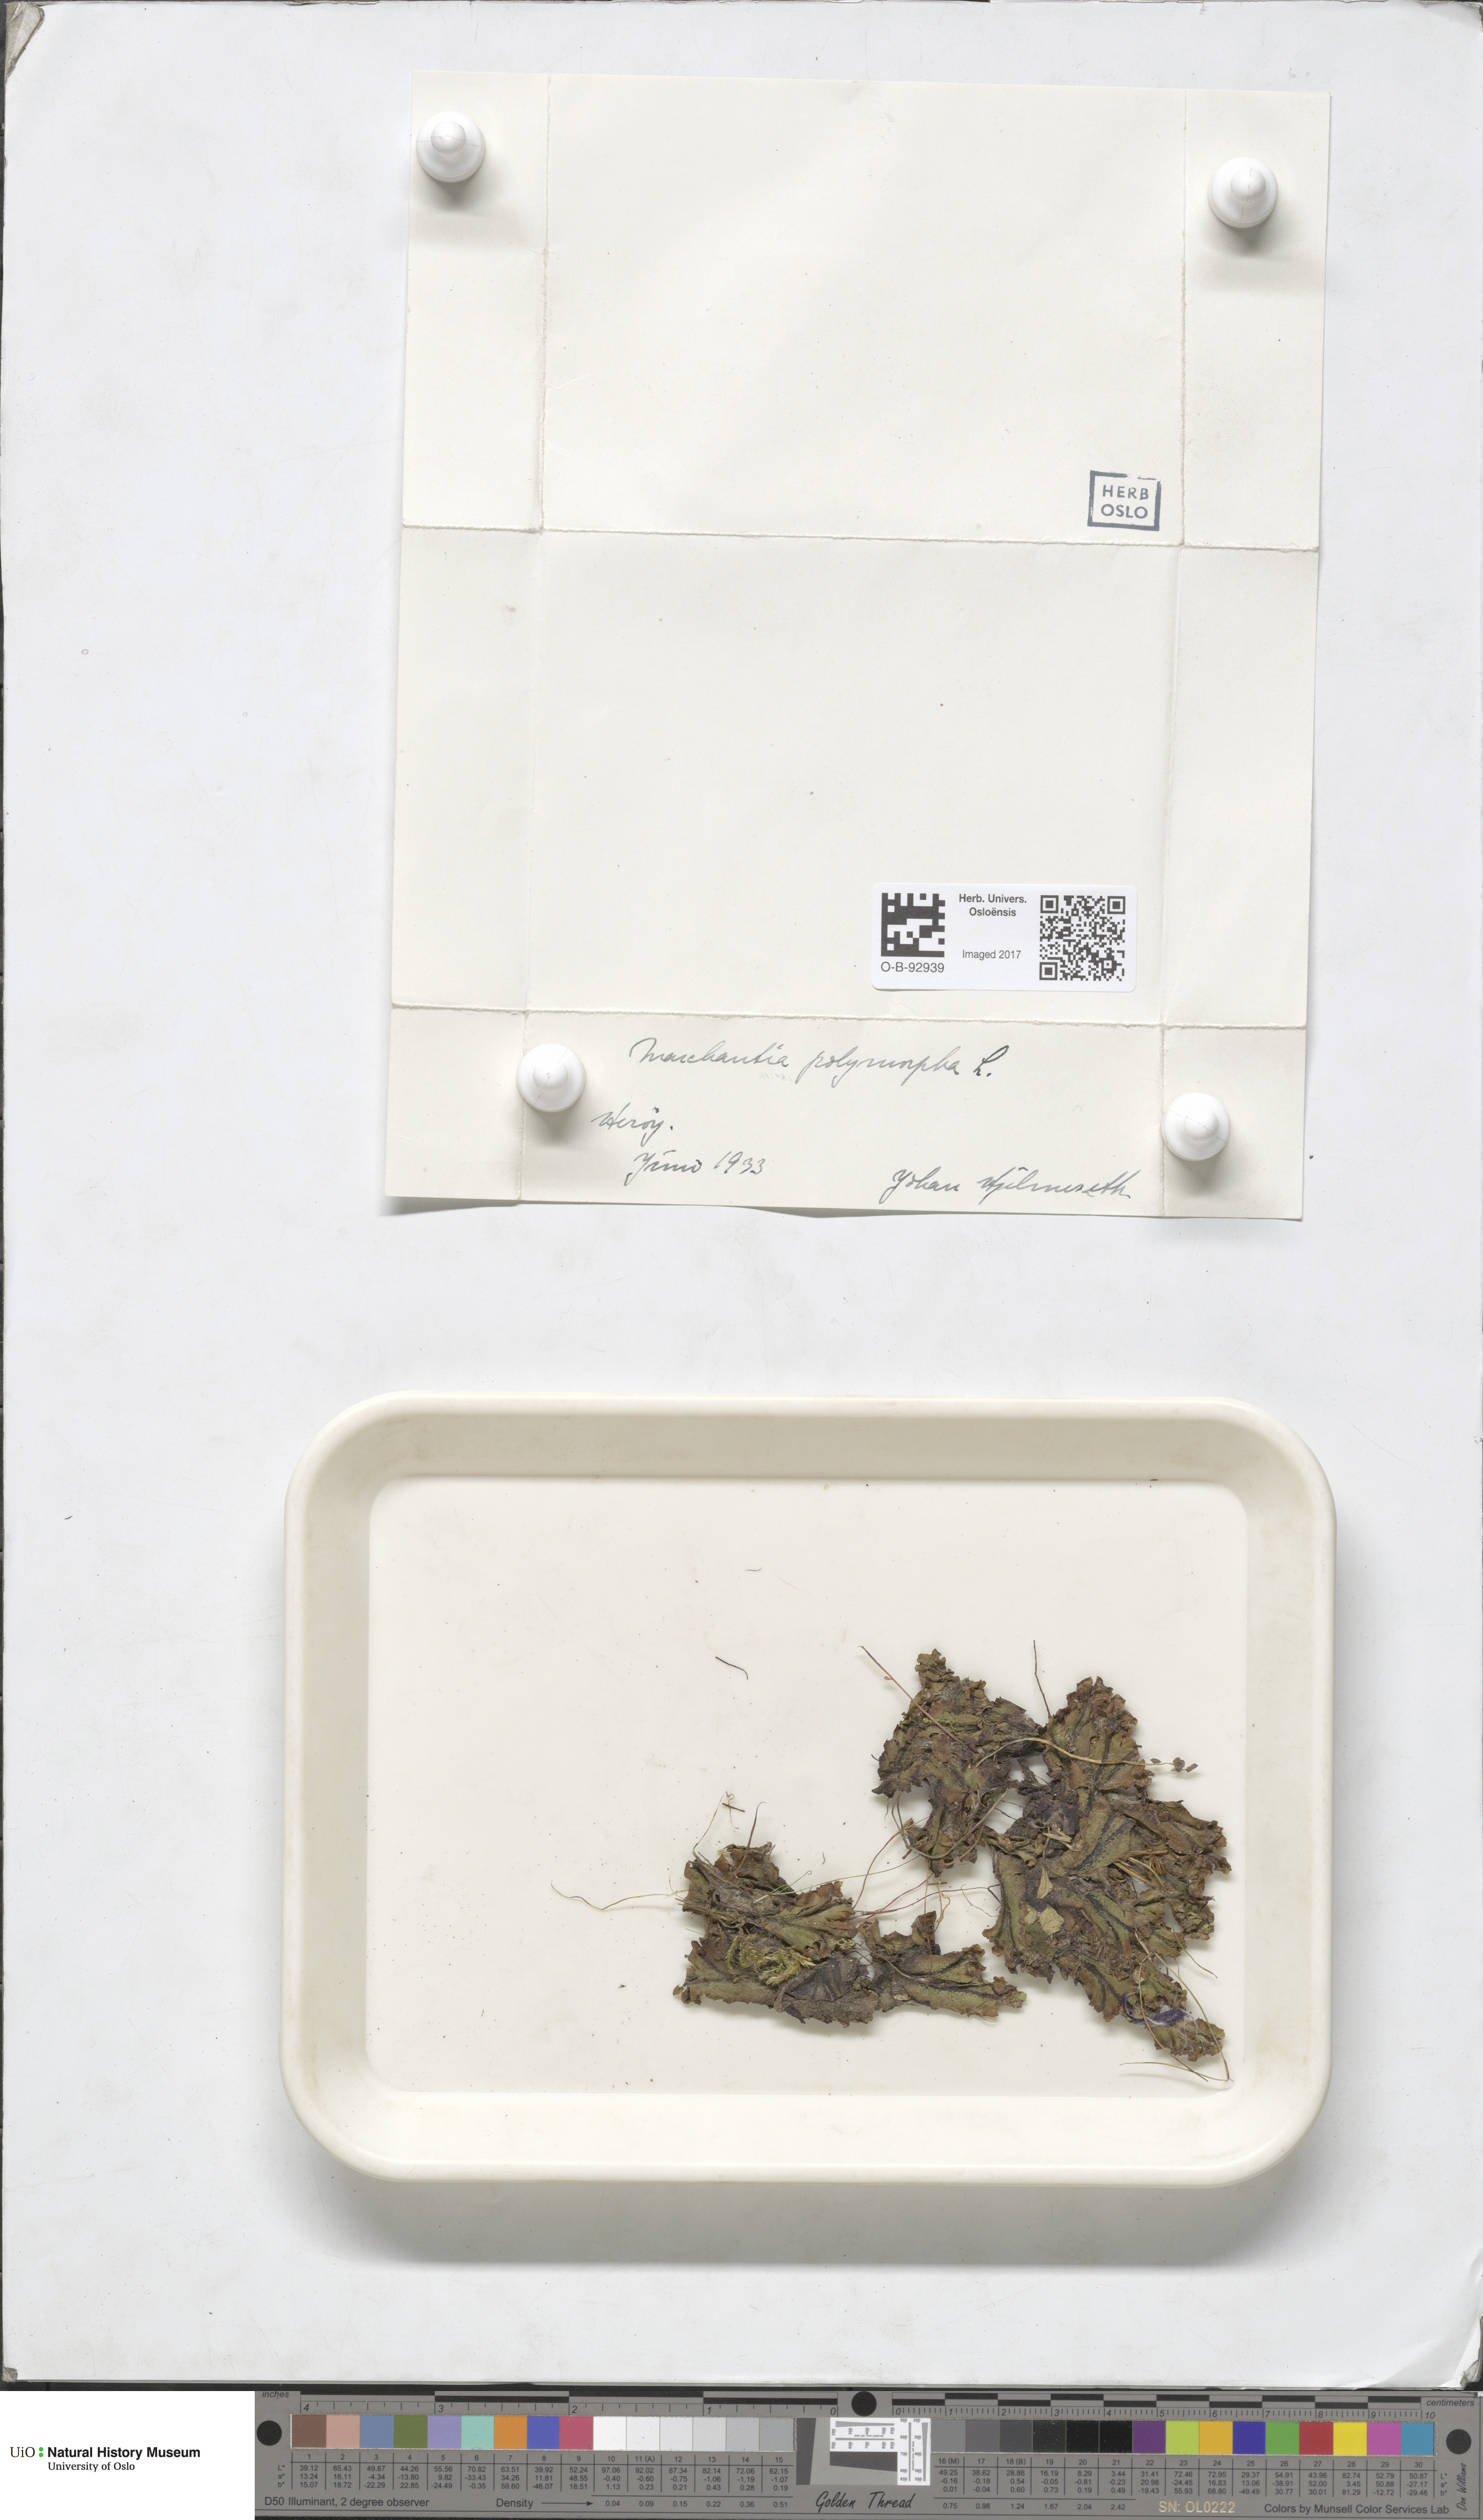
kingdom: Plantae
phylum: Marchantiophyta
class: Marchantiopsida
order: Marchantiales
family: Marchantiaceae
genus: Marchantia
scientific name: Marchantia polymorpha
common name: Common liverwort
